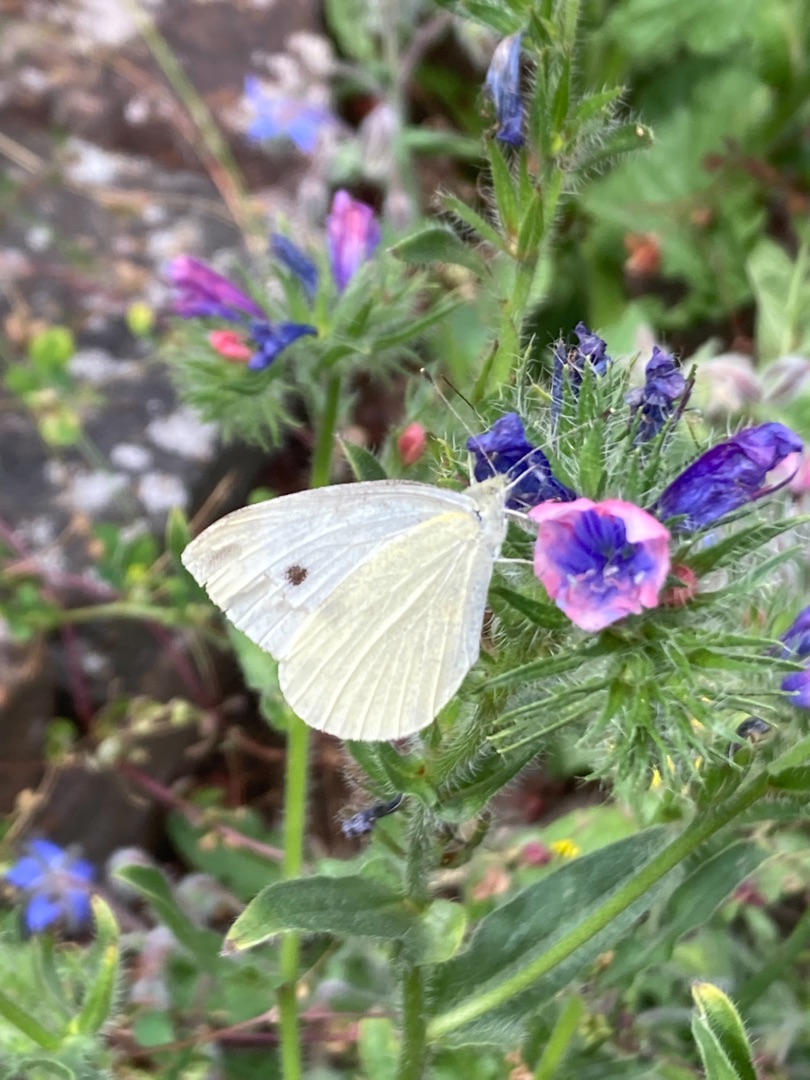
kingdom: Animalia
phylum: Arthropoda
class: Insecta
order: Lepidoptera
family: Pieridae
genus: Pieris
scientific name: Pieris rapae
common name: Lille kålsommerfugl
